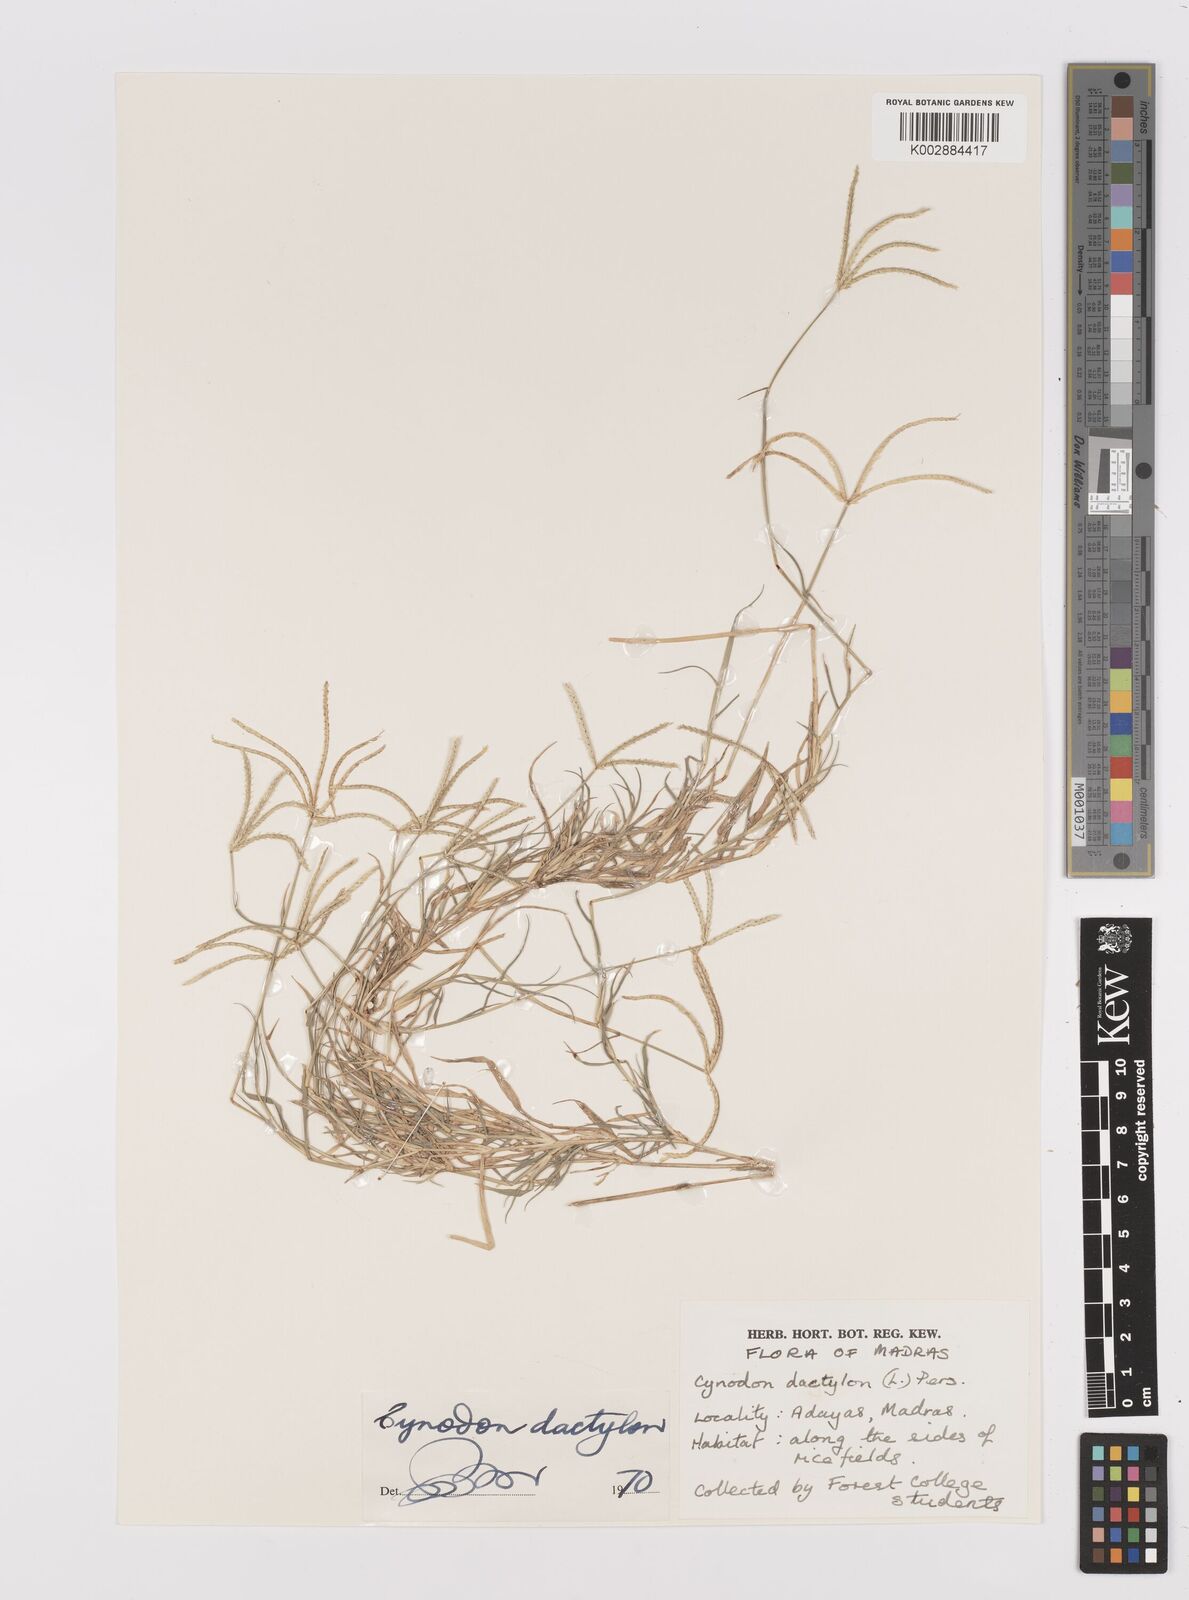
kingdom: Plantae
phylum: Tracheophyta
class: Liliopsida
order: Poales
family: Poaceae
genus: Cynodon
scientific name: Cynodon dactylon
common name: Bermuda grass
